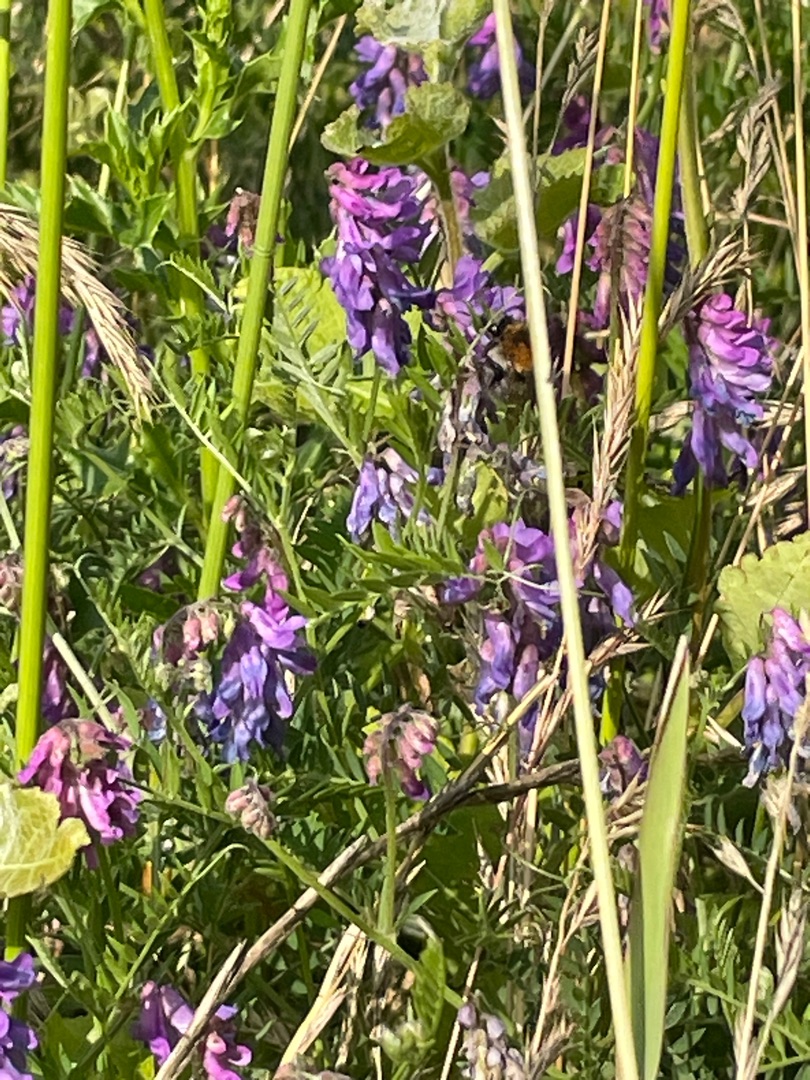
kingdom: Plantae
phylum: Tracheophyta
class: Magnoliopsida
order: Fabales
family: Fabaceae
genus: Vicia
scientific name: Vicia cracca
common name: Muse-vikke
